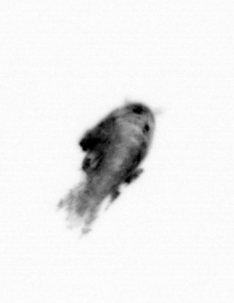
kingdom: Animalia
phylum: Arthropoda
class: Maxillopoda
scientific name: Maxillopoda
